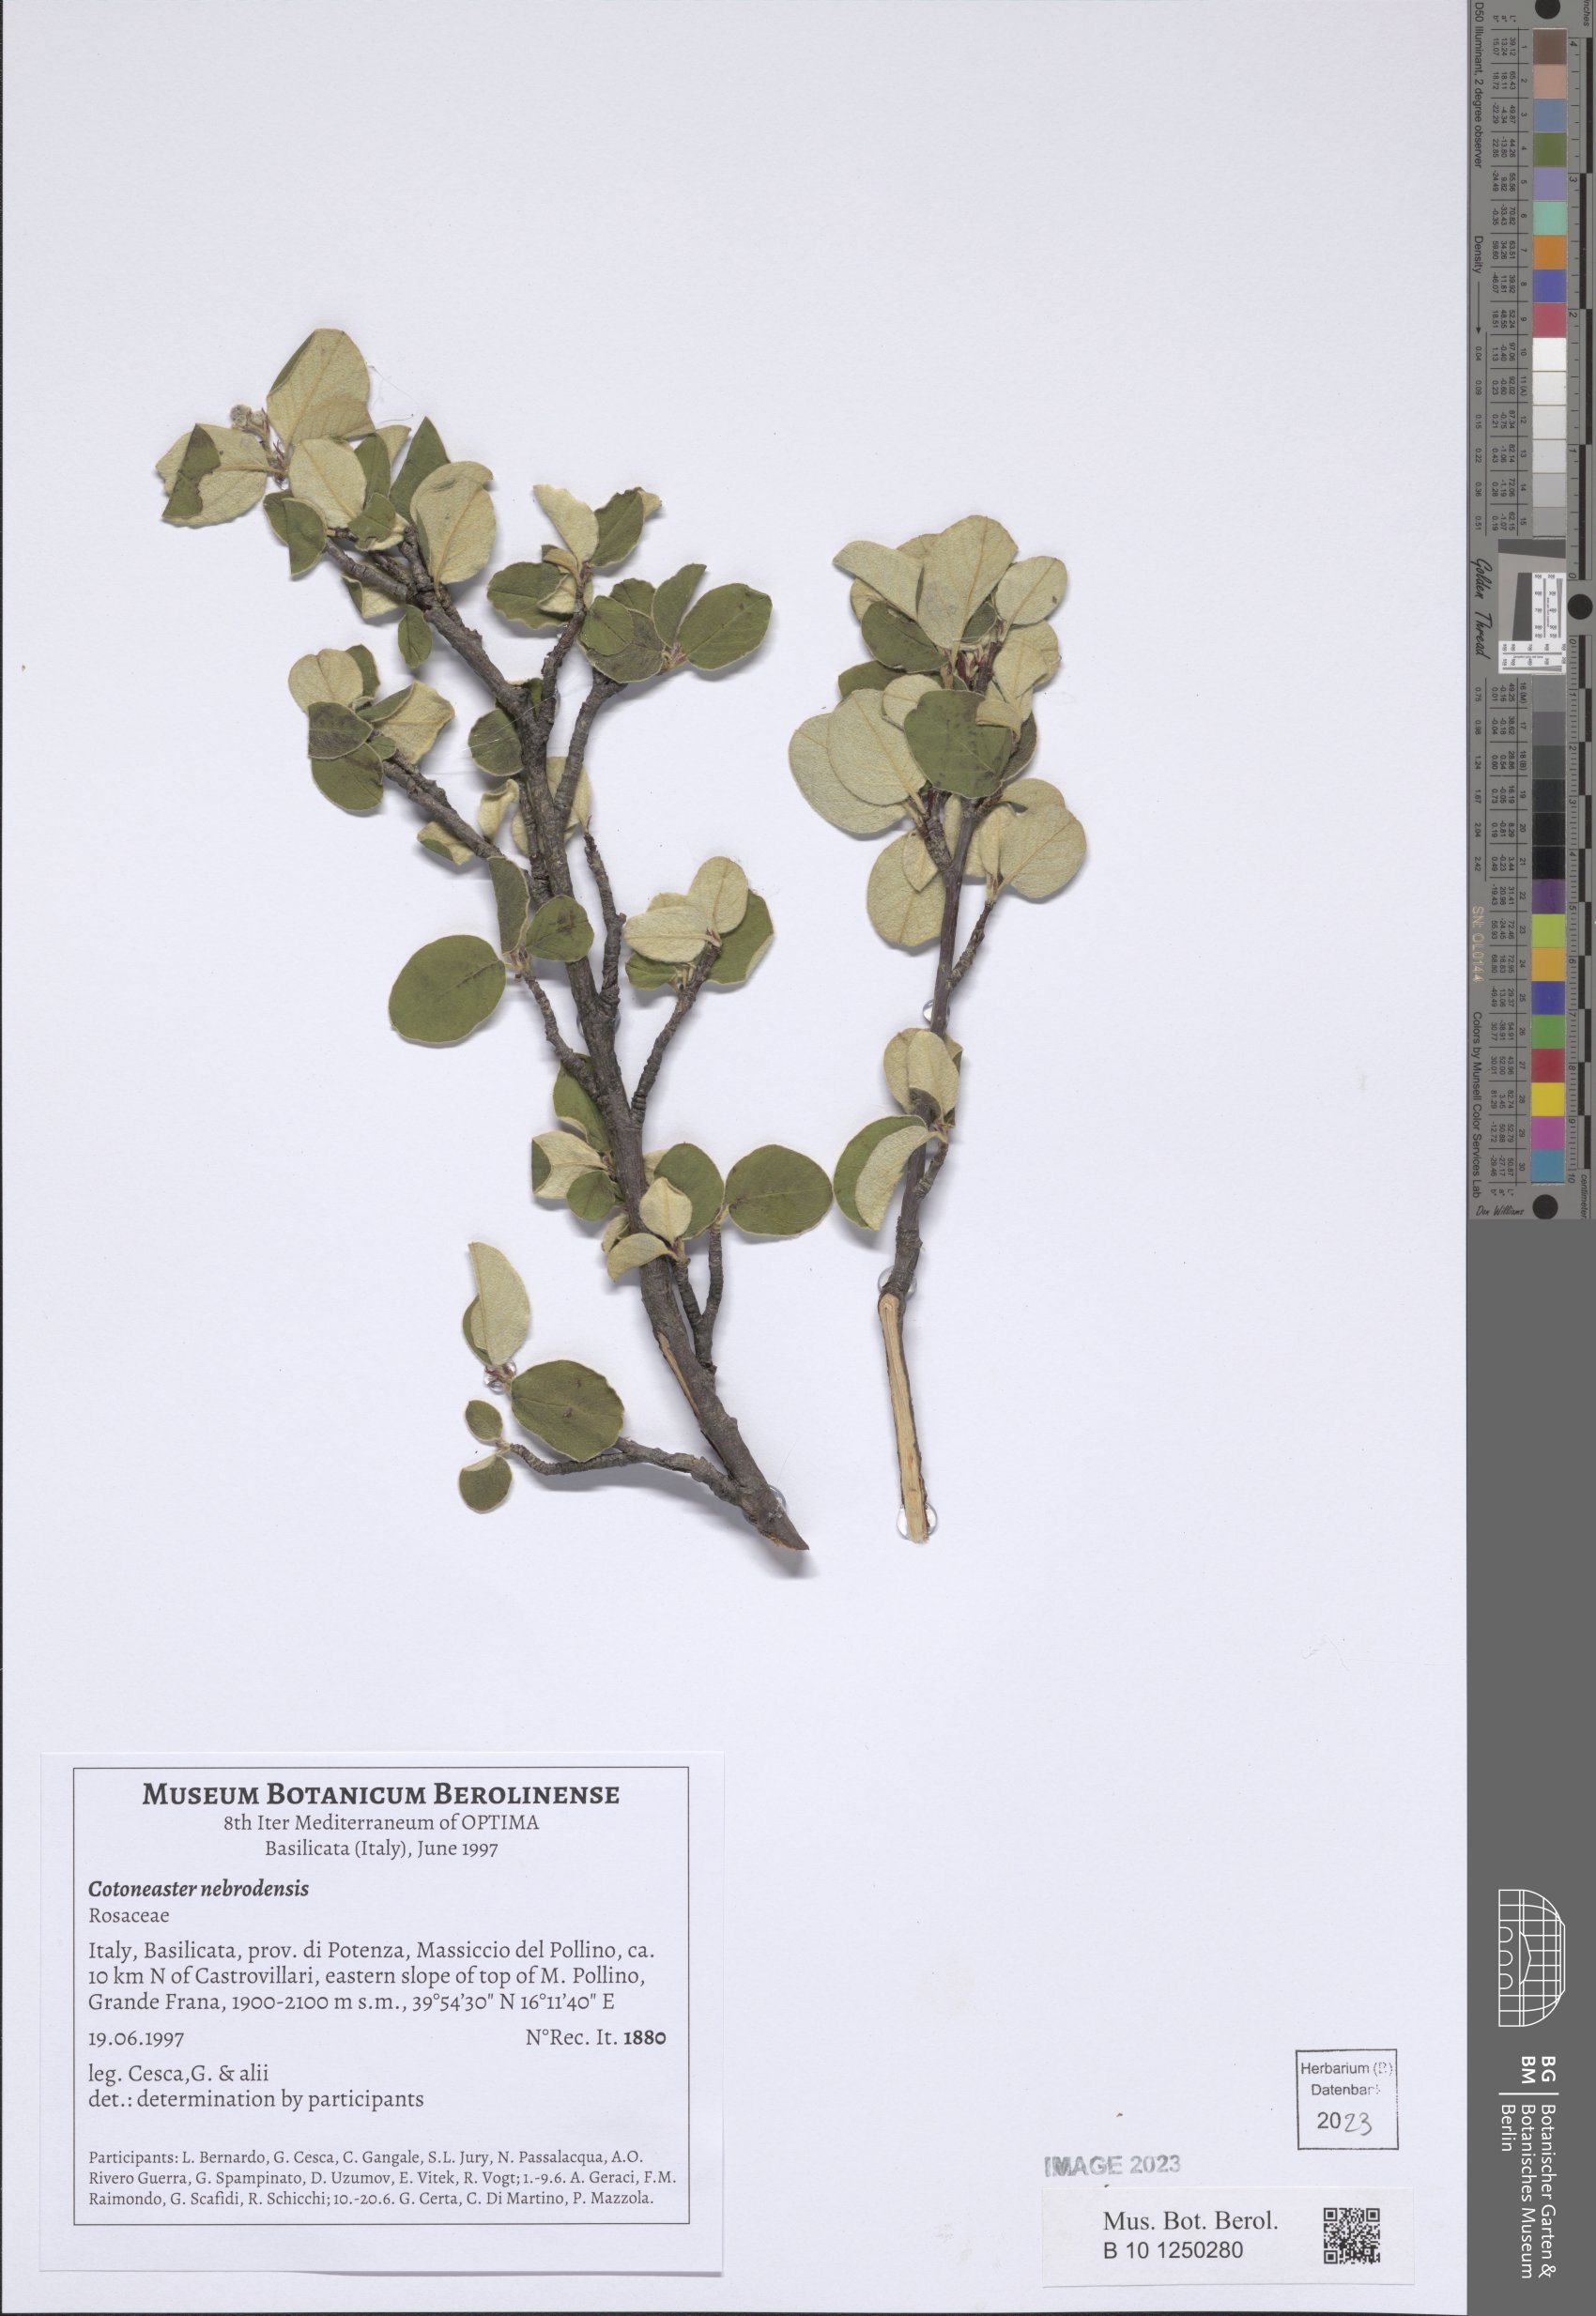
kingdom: Plantae
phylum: Tracheophyta
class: Magnoliopsida
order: Rosales
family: Rosaceae
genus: Cotoneaster
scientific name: Cotoneaster nebrodensis
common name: Brickberry cotoneaster
